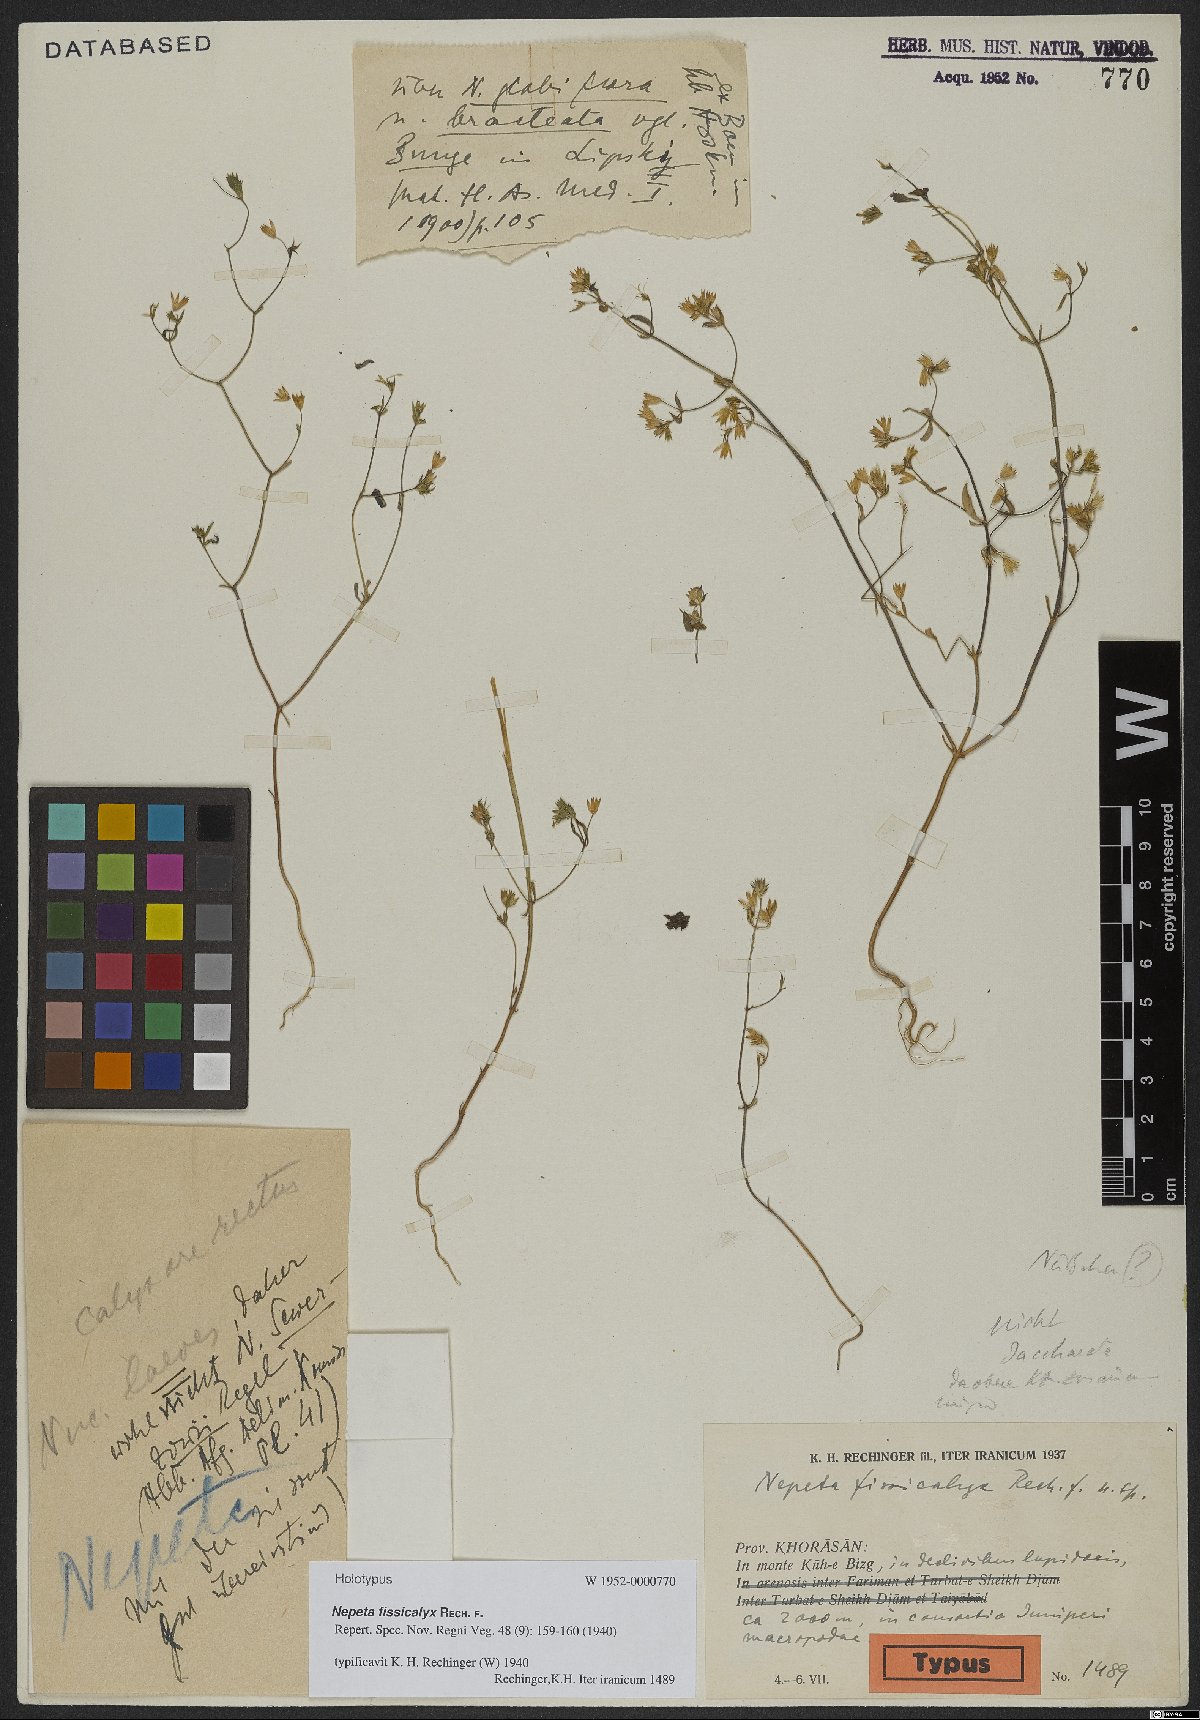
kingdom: Plantae
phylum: Tracheophyta
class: Magnoliopsida
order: Lamiales
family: Lamiaceae
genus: Nepeta
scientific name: Nepeta fissicalyx
